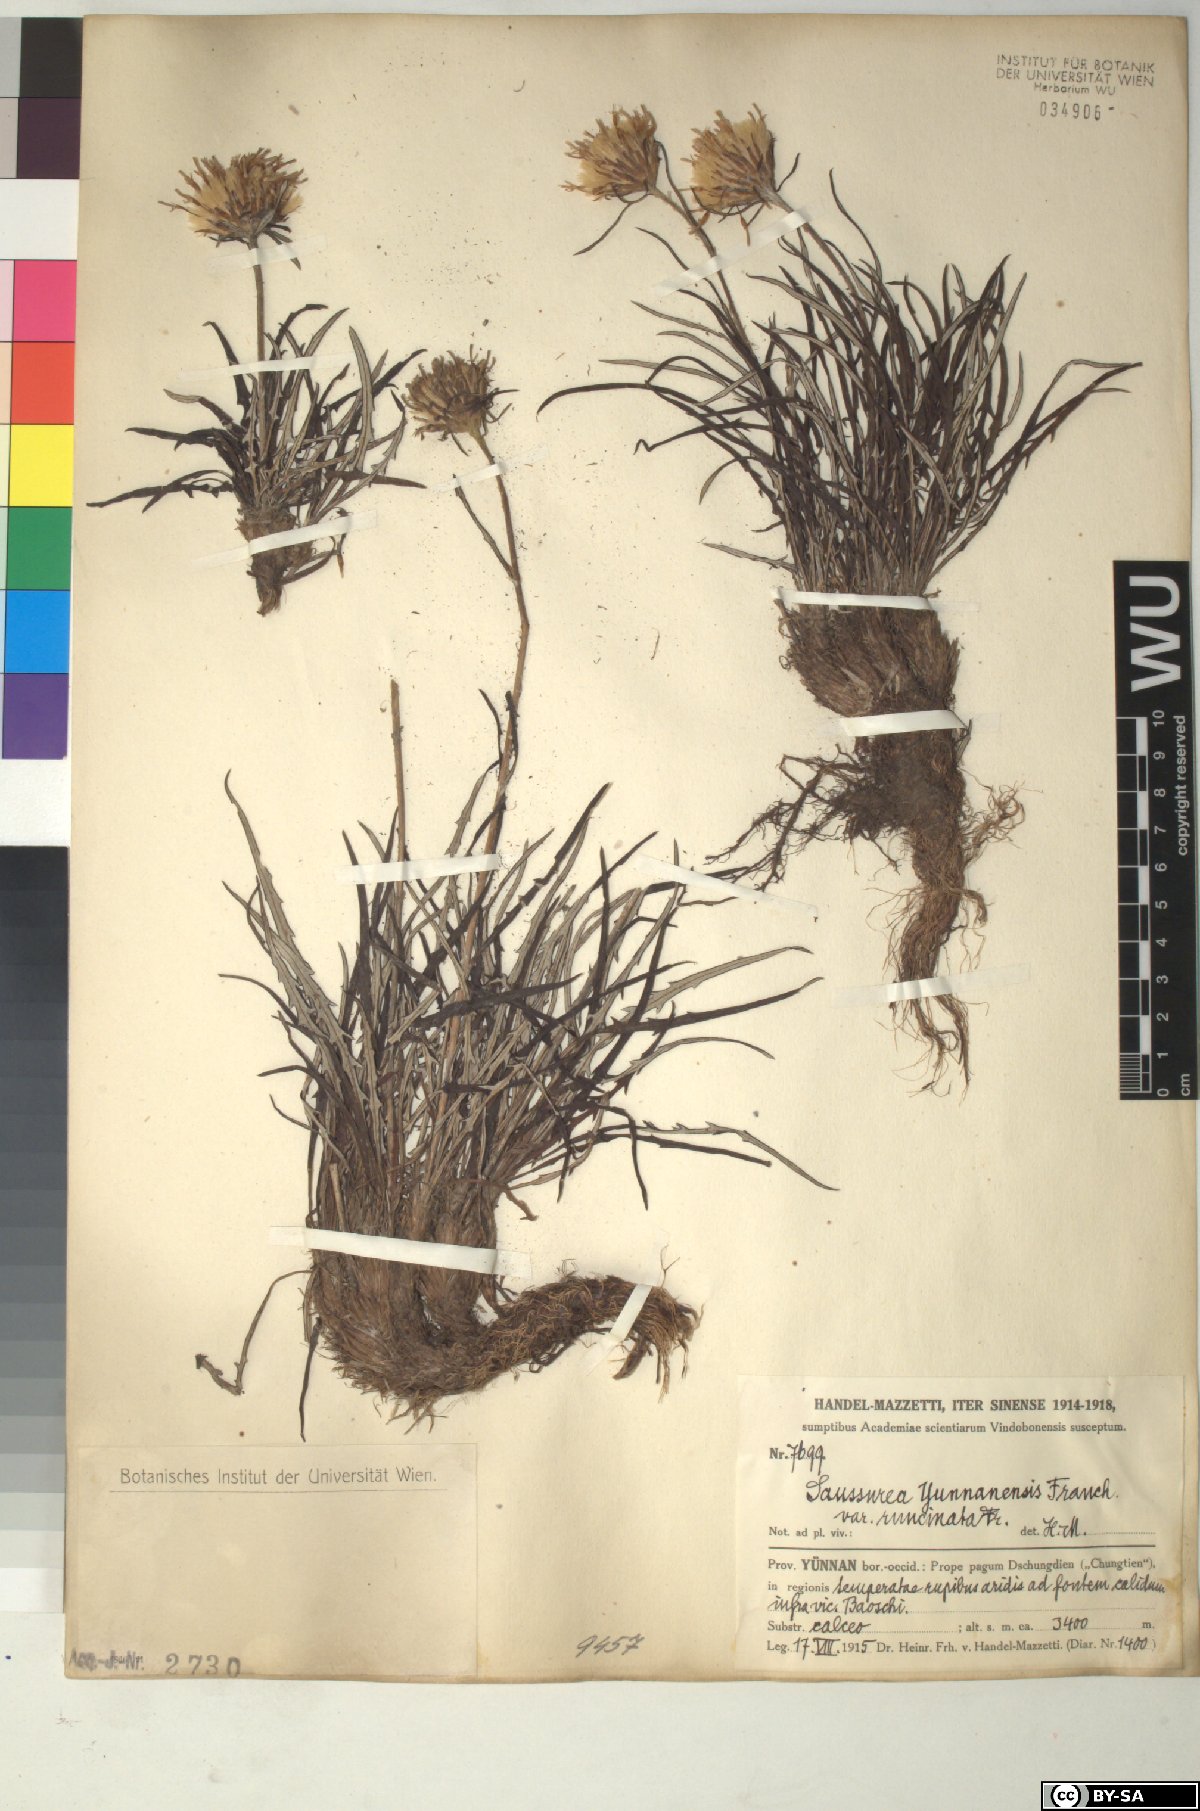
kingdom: Plantae
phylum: Tracheophyta
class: Magnoliopsida
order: Asterales
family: Asteraceae
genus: Saussurea
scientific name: Saussurea yunnanensis
